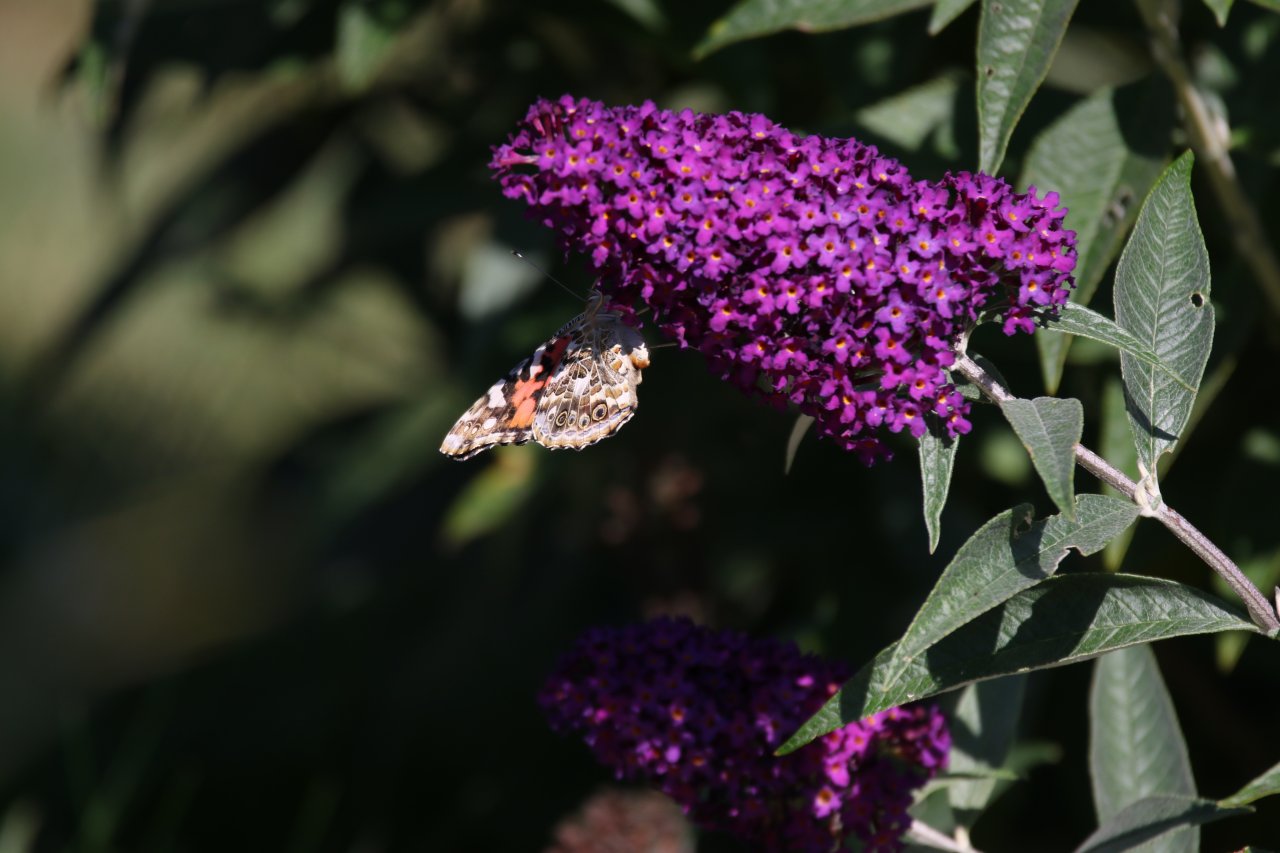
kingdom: Animalia
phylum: Arthropoda
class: Insecta
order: Lepidoptera
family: Nymphalidae
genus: Vanessa
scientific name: Vanessa cardui
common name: Painted Lady
